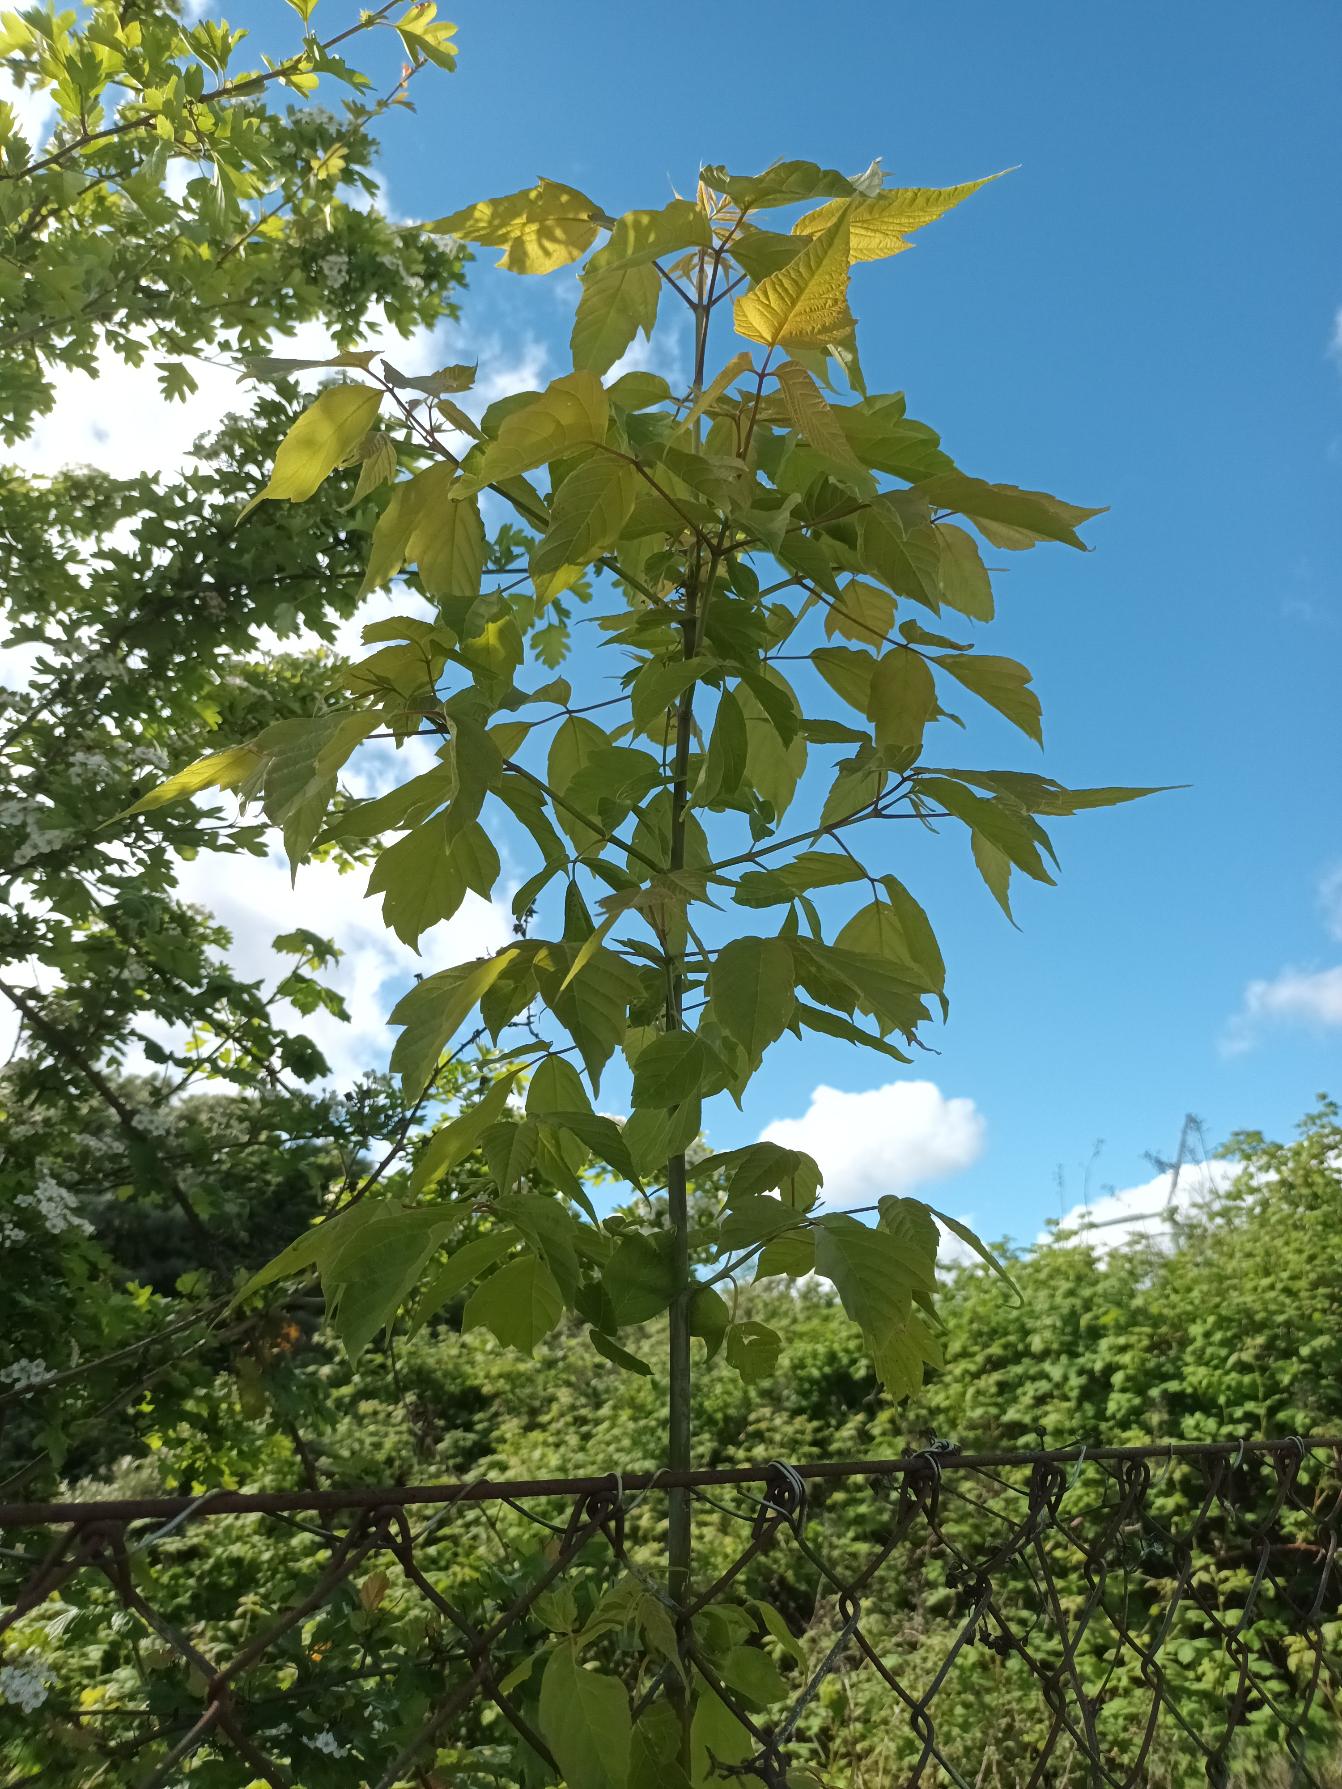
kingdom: Plantae
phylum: Tracheophyta
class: Magnoliopsida
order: Sapindales
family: Sapindaceae
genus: Acer
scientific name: Acer negundo
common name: Askebladet løn
